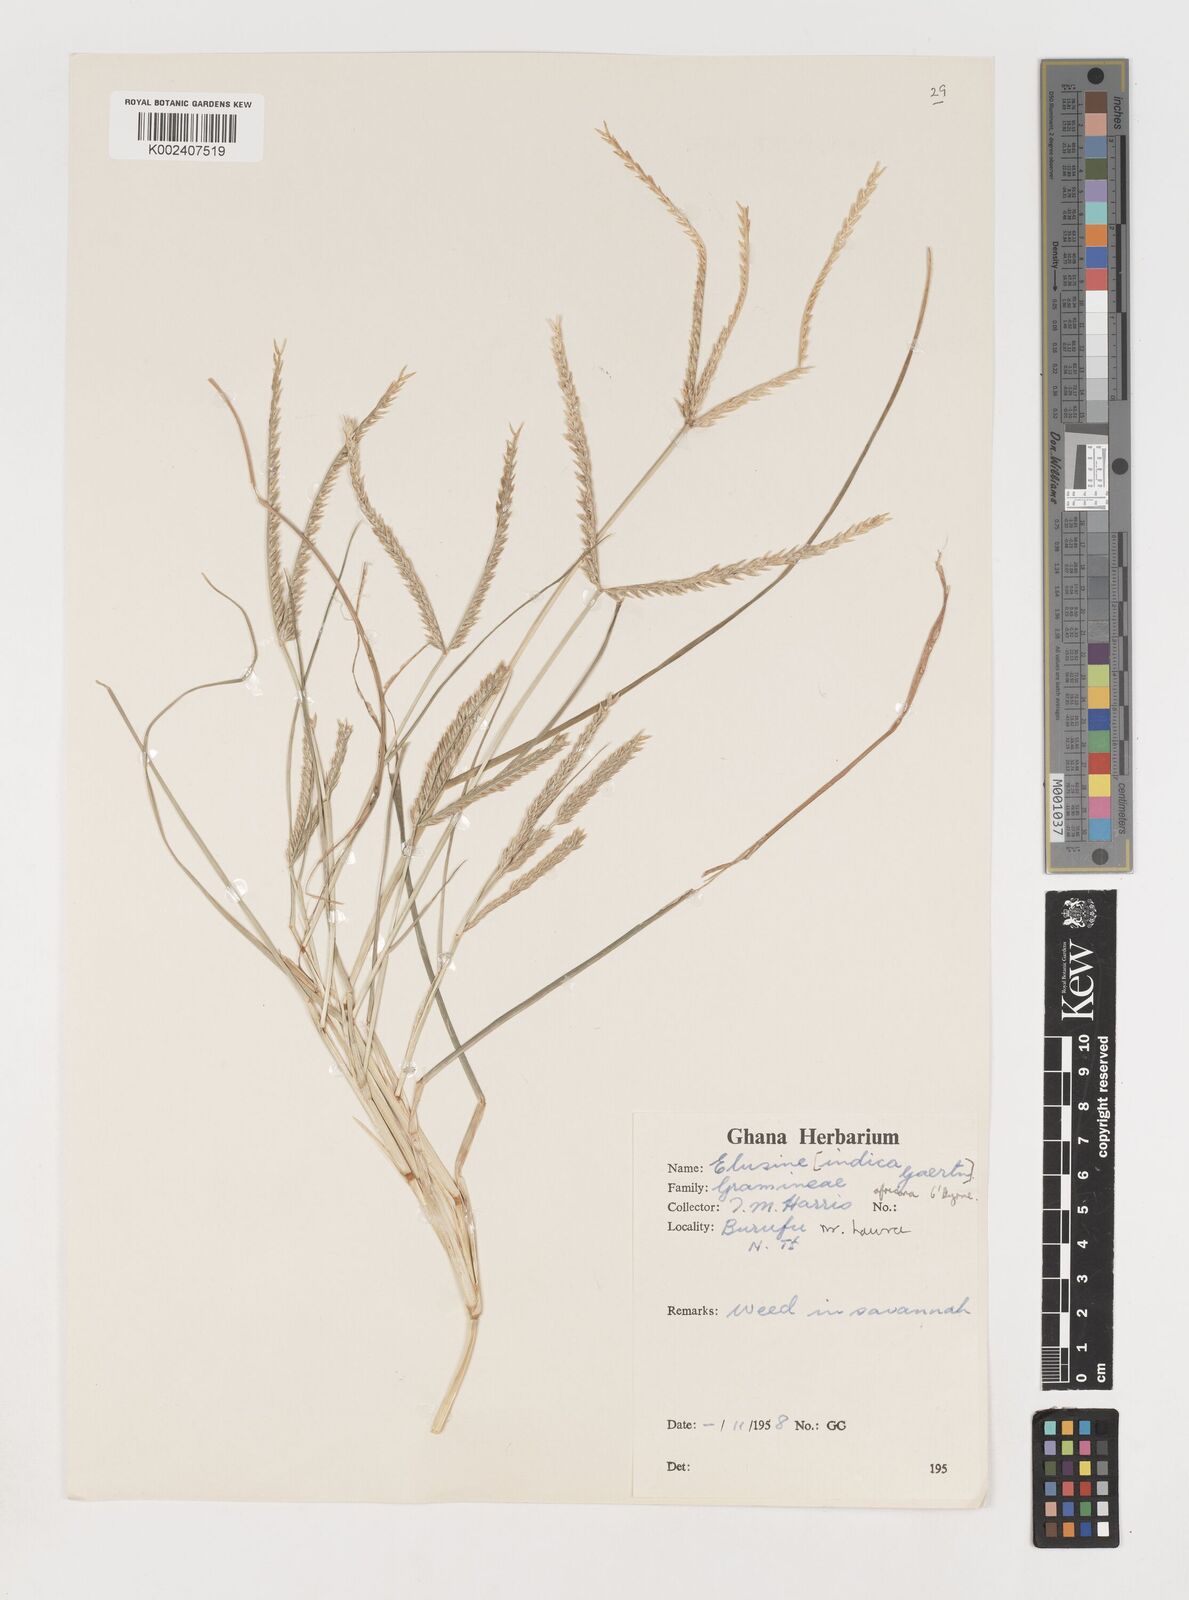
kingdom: Plantae
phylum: Tracheophyta
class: Liliopsida
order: Poales
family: Poaceae
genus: Eleusine
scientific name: Eleusine africana
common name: Wild african finger millet
